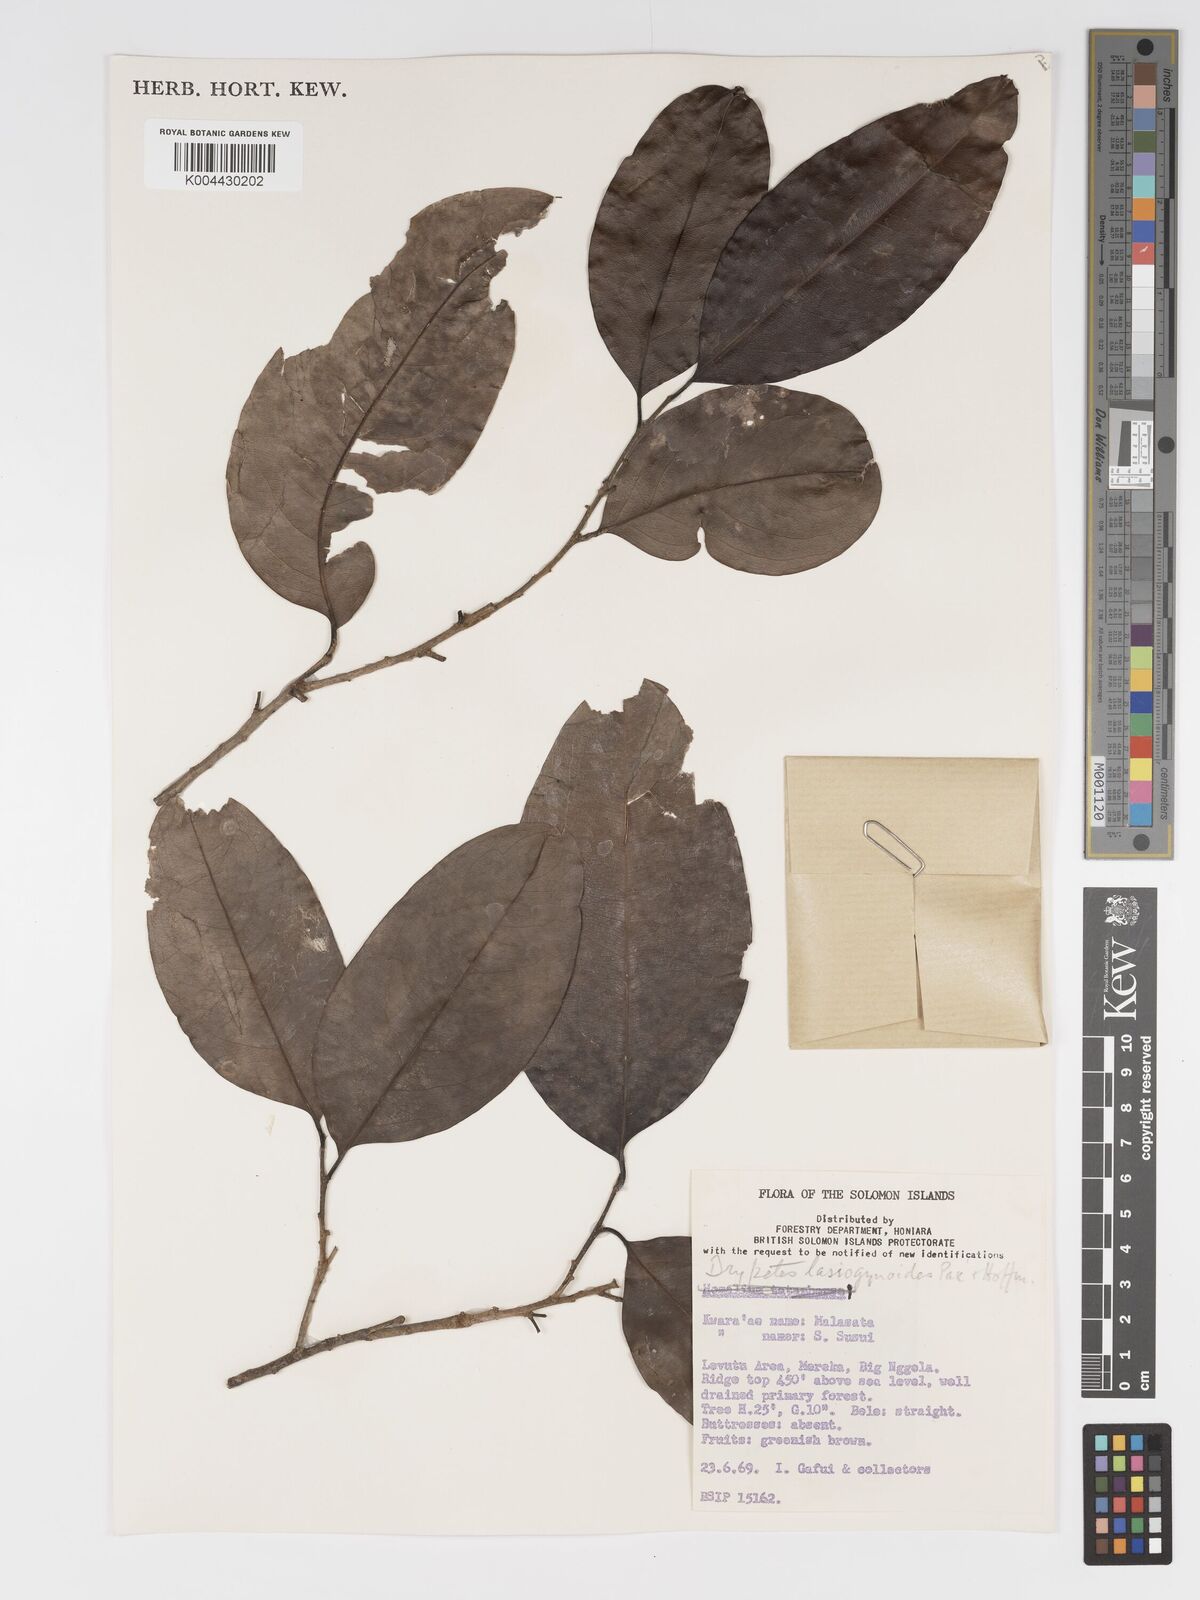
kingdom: Plantae
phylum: Tracheophyta
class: Magnoliopsida
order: Malpighiales
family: Putranjivaceae
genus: Drypetes
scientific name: Drypetes lasiogynoides
